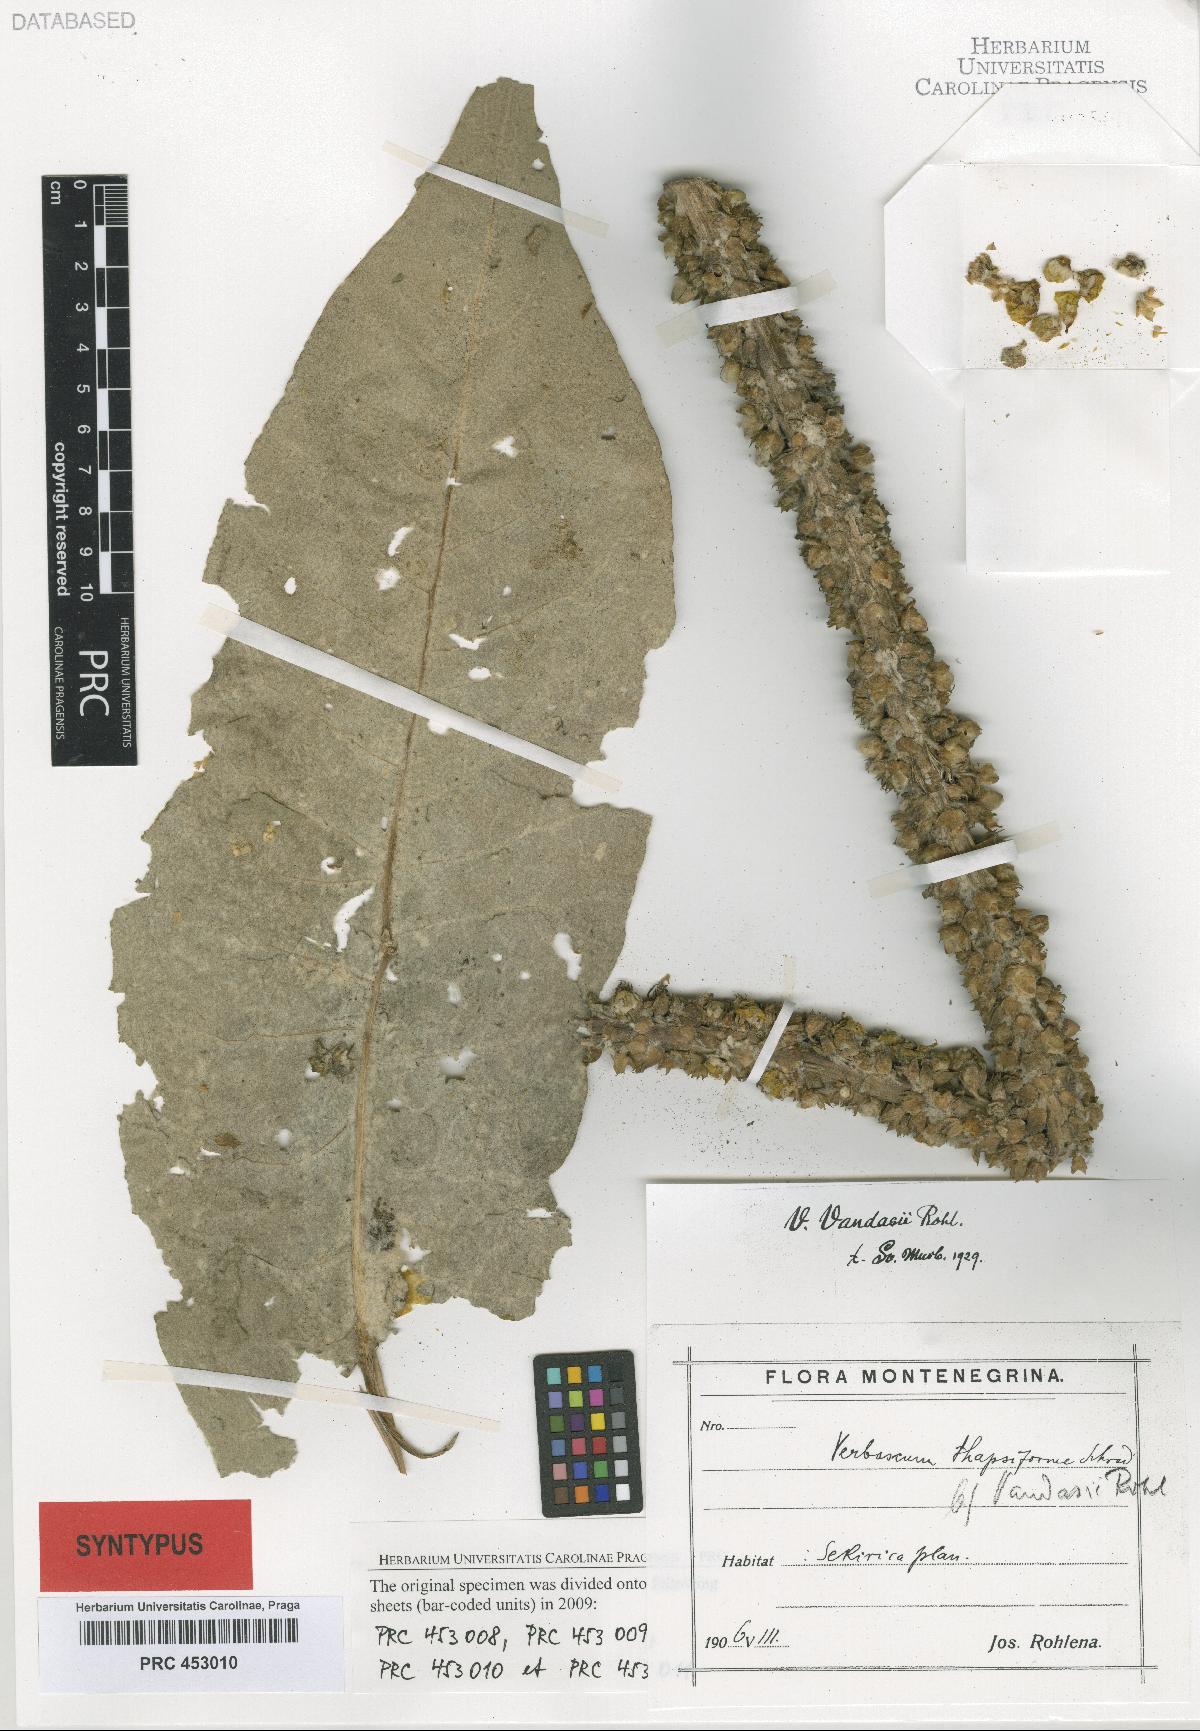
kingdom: Plantae
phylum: Tracheophyta
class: Magnoliopsida
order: Lamiales
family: Scrophulariaceae
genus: Verbascum
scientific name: Verbascum vandasii
